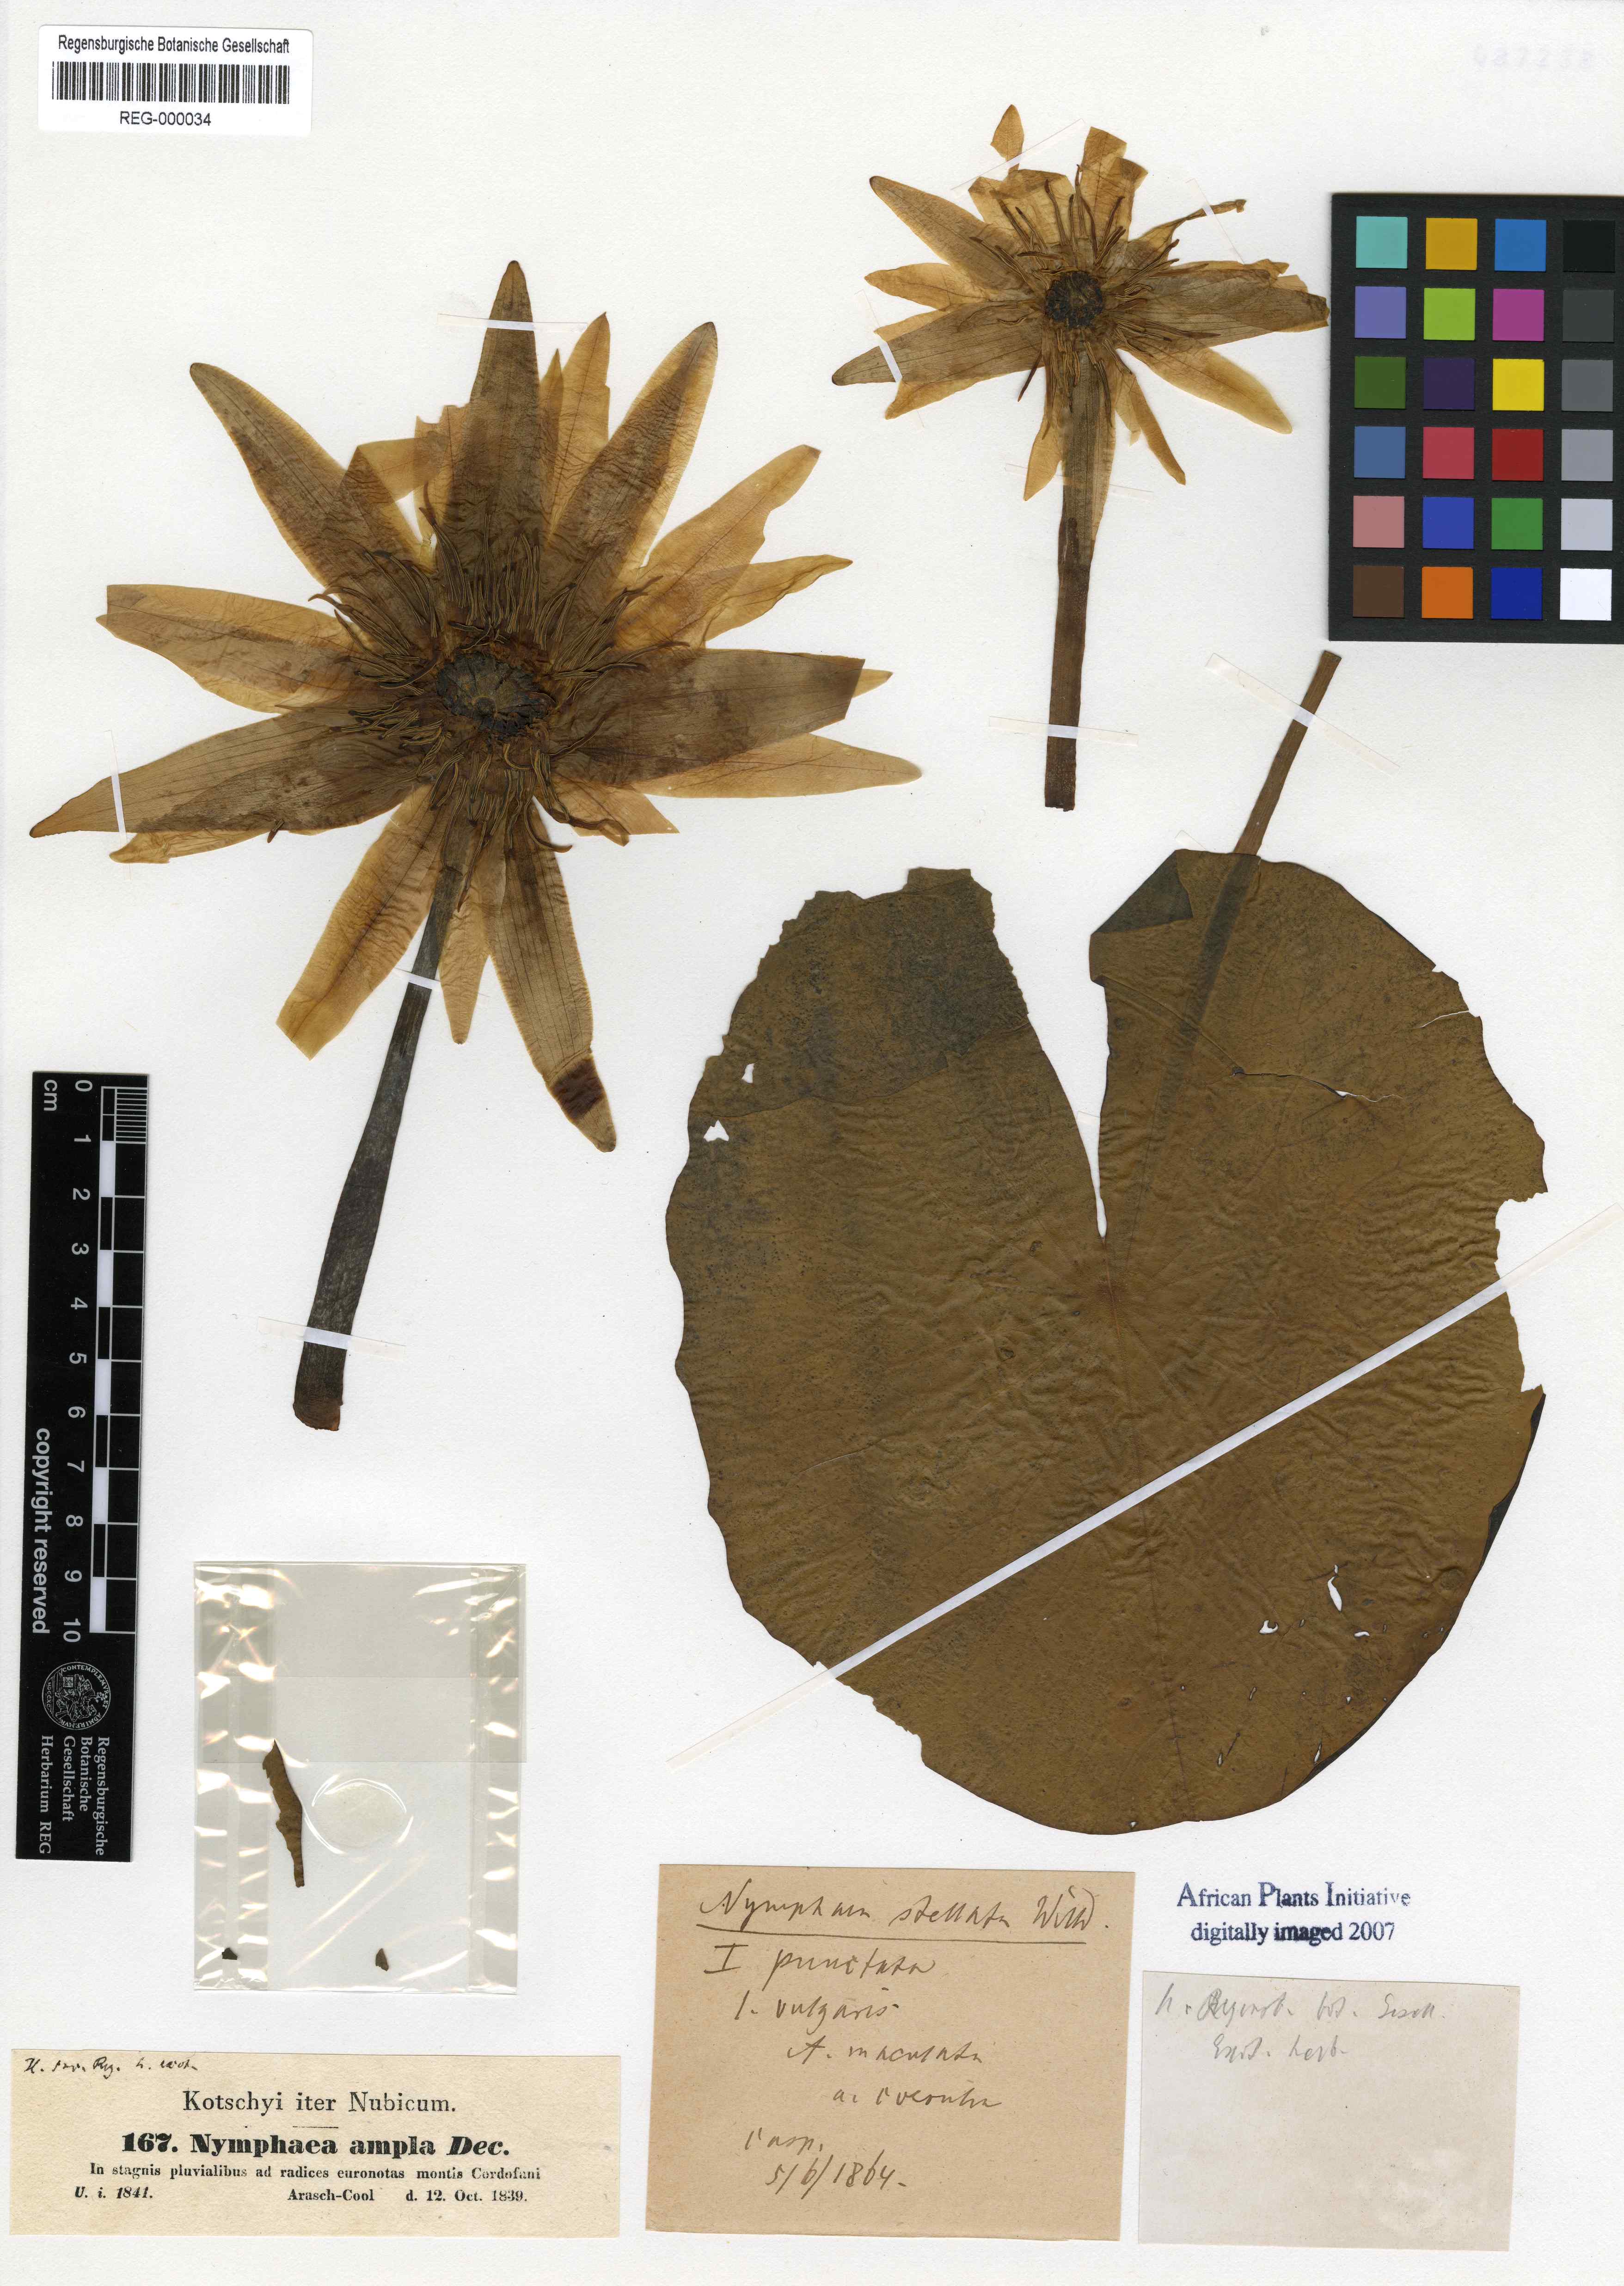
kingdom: Plantae
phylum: Tracheophyta
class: Magnoliopsida
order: Nymphaeales
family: Nymphaeaceae
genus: Nymphaea
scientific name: Nymphaea ampla
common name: Dotleaf waterlily
